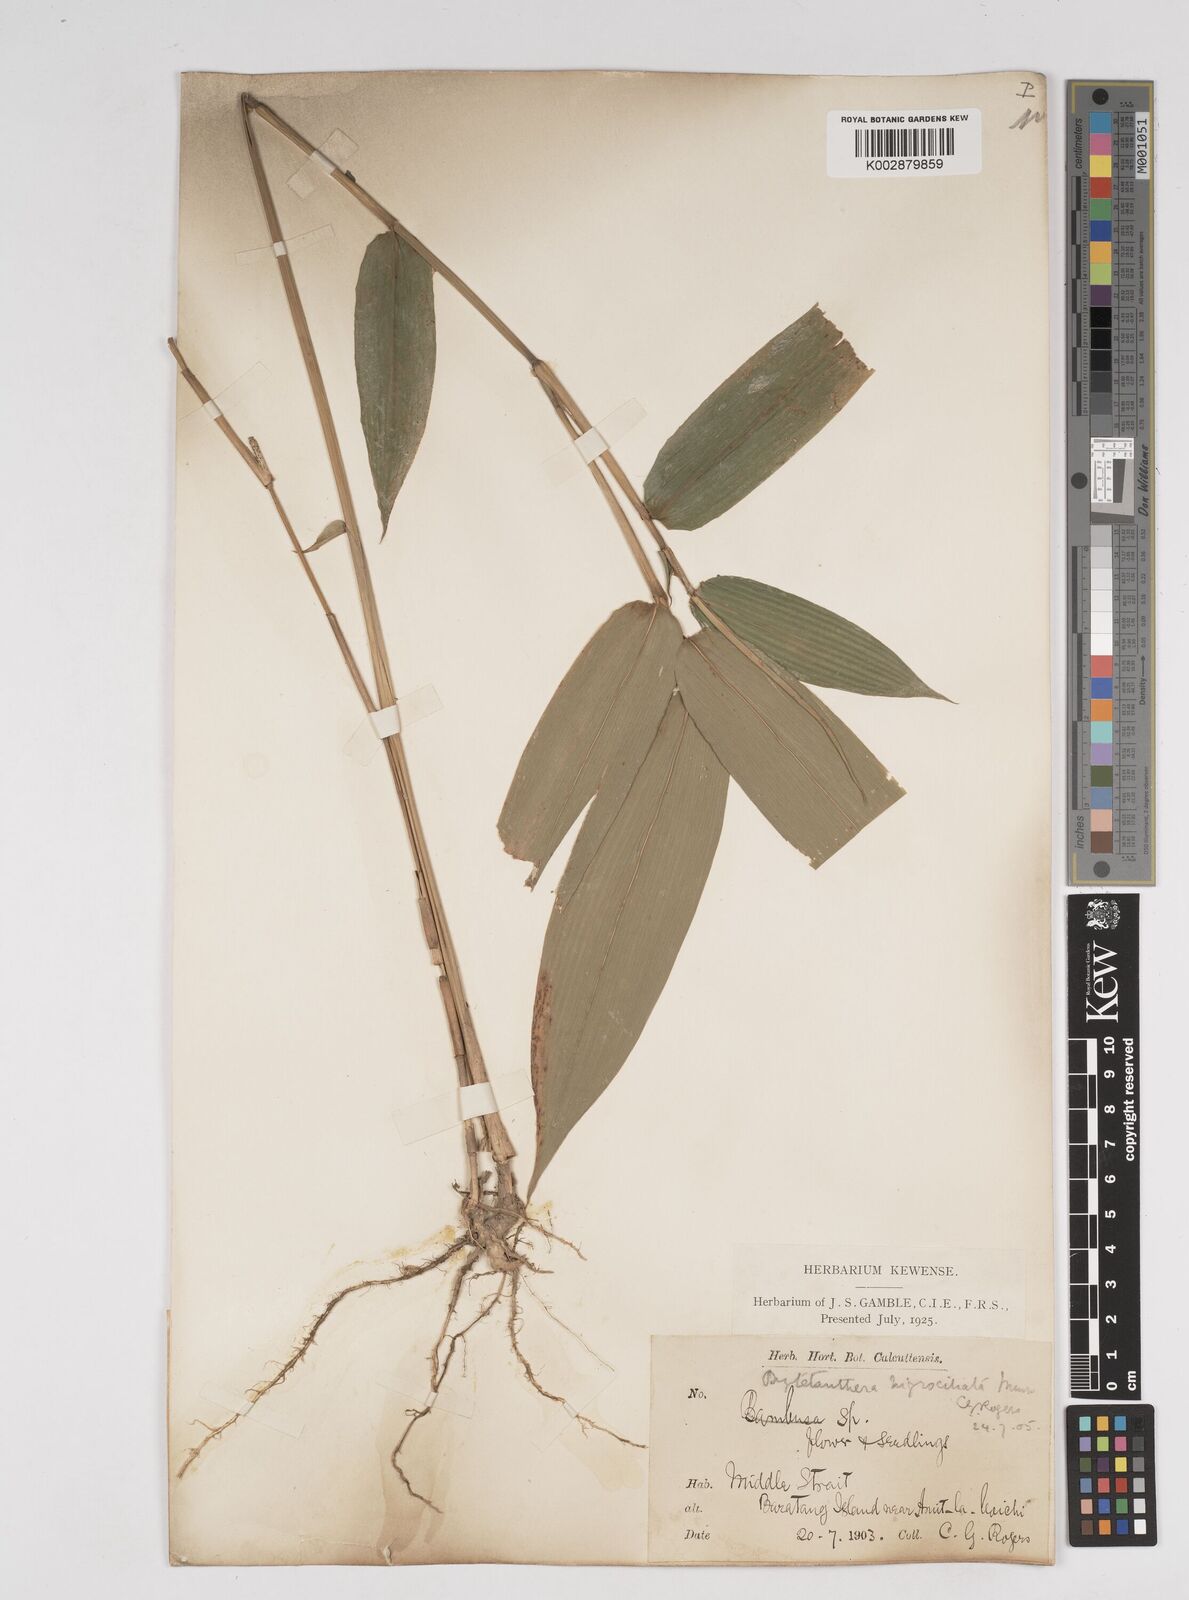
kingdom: Plantae
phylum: Tracheophyta
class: Liliopsida
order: Poales
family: Poaceae
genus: Gigantochloa
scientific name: Gigantochloa
